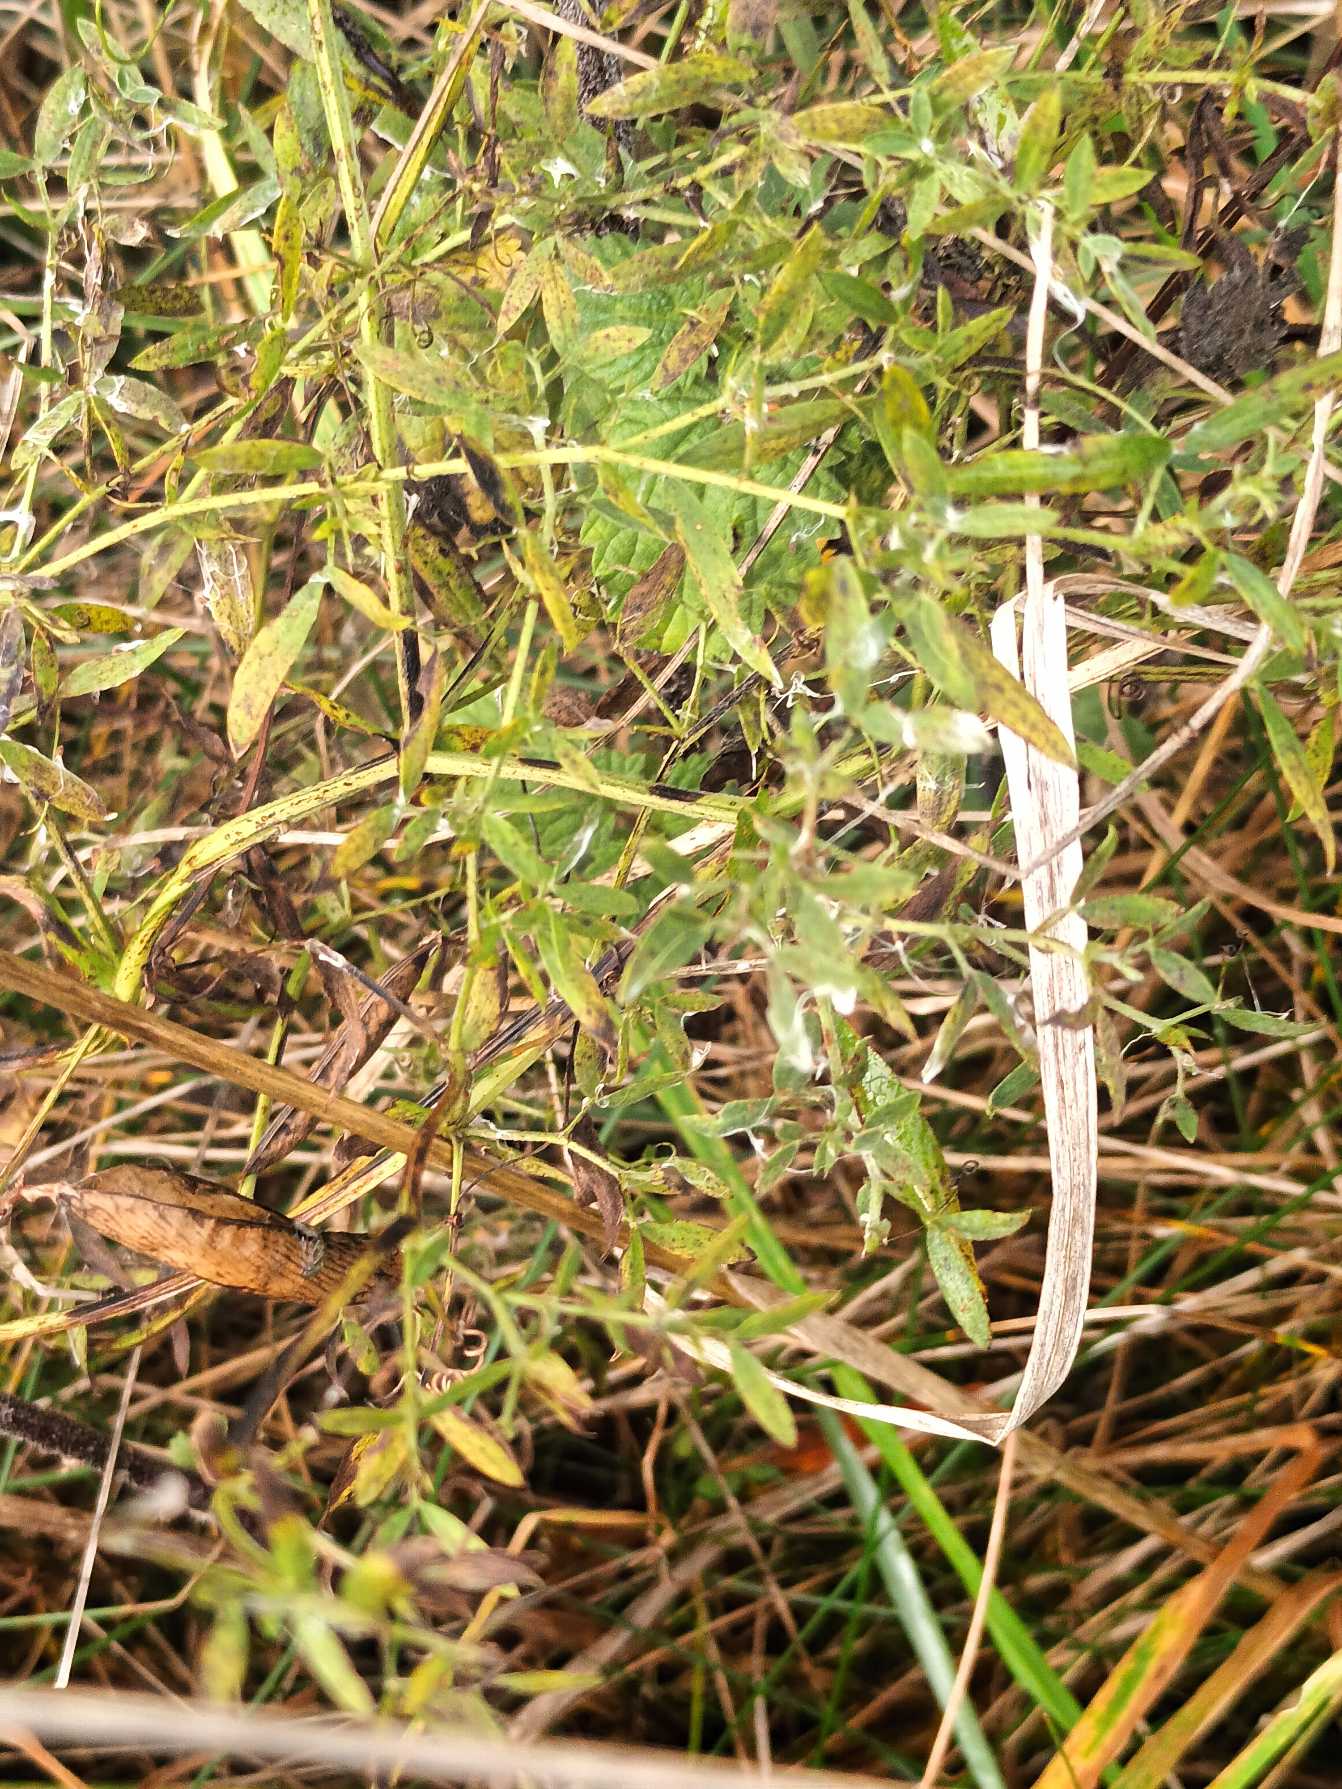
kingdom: Plantae
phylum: Tracheophyta
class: Magnoliopsida
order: Fabales
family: Fabaceae
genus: Lathyrus
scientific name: Lathyrus pratensis
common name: Gul fladbælg
